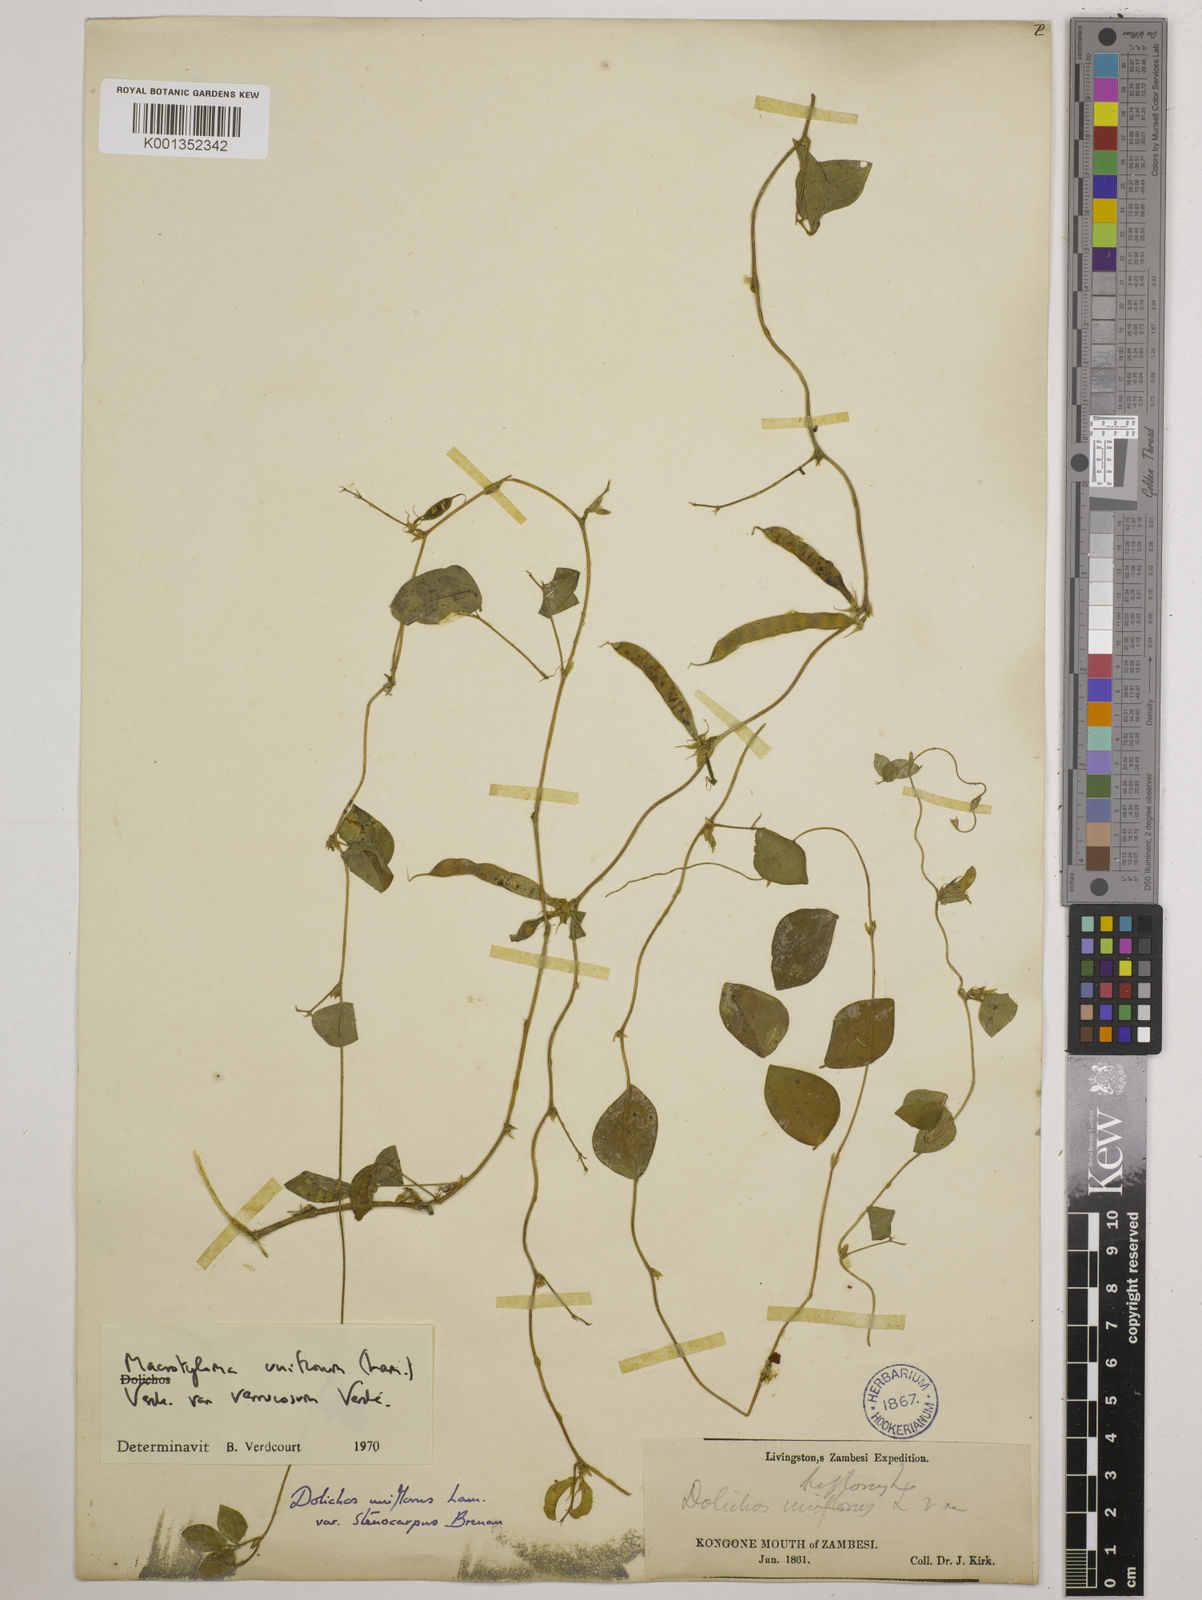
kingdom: Plantae
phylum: Tracheophyta
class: Magnoliopsida
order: Fabales
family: Fabaceae
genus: Macrotyloma
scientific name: Macrotyloma
